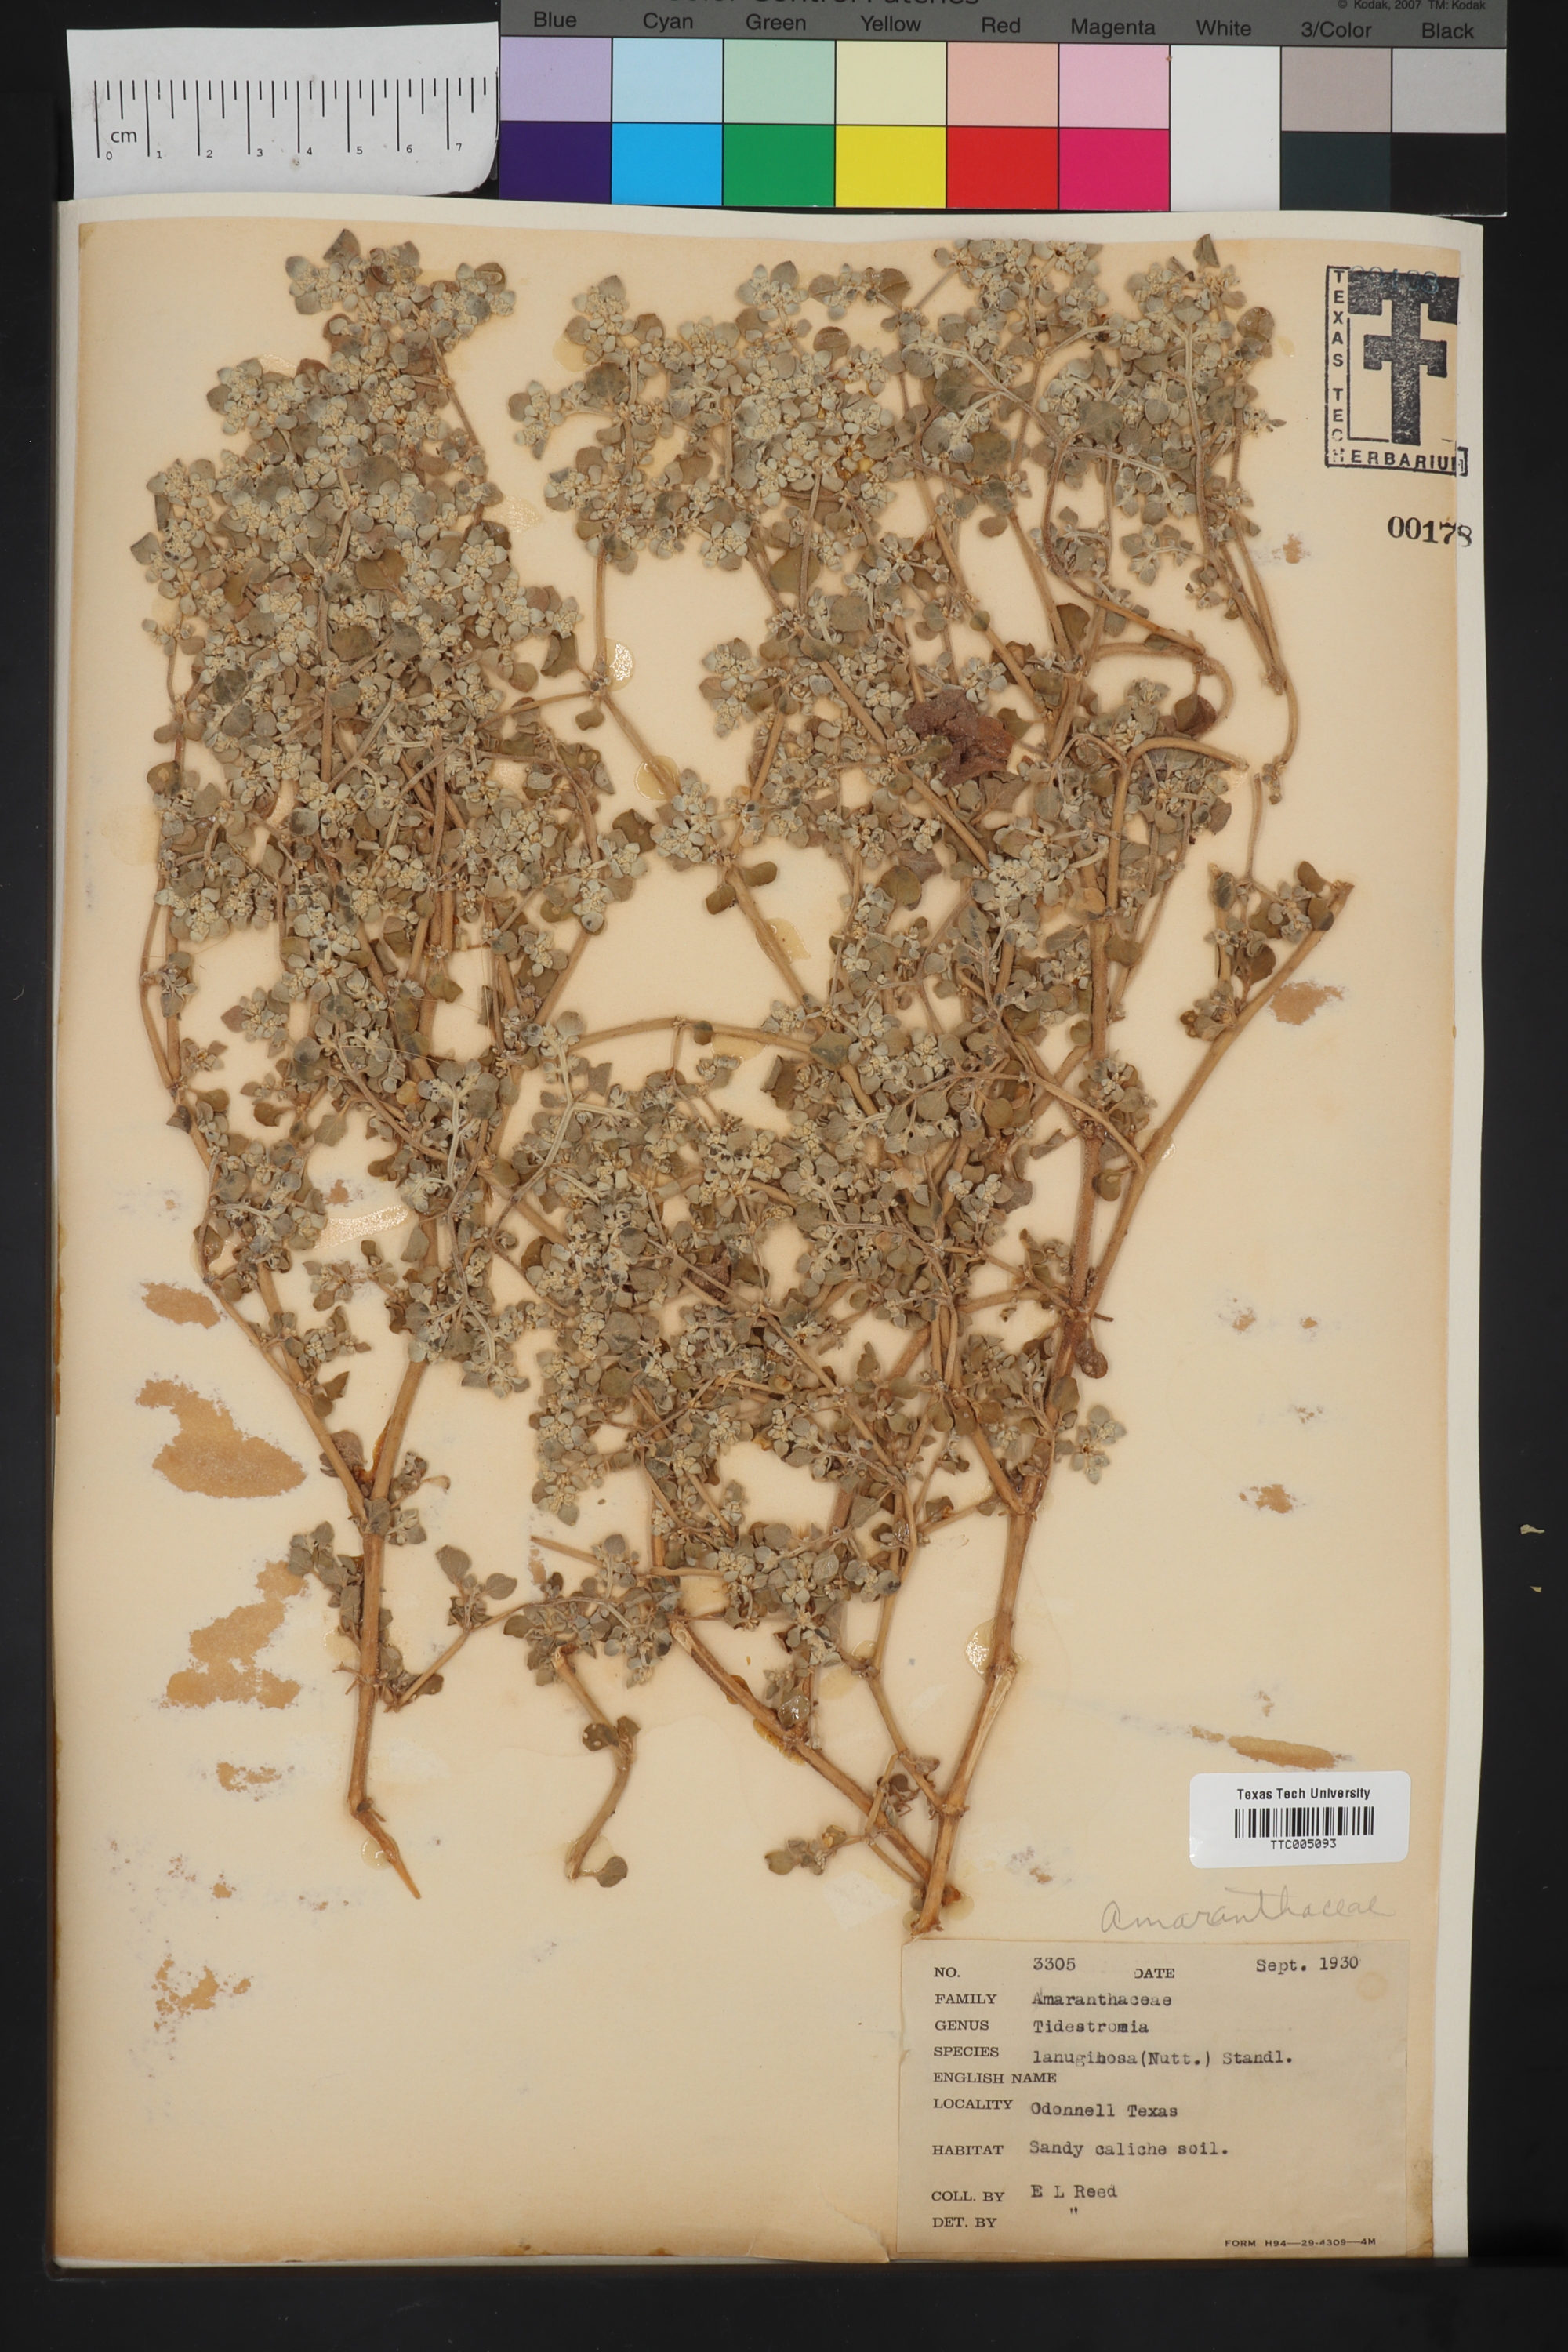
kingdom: Plantae
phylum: Tracheophyta
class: Magnoliopsida
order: Caryophyllales
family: Amaranthaceae
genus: Tidestromia
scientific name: Tidestromia lanuginosa
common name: Woolly tidestromia
